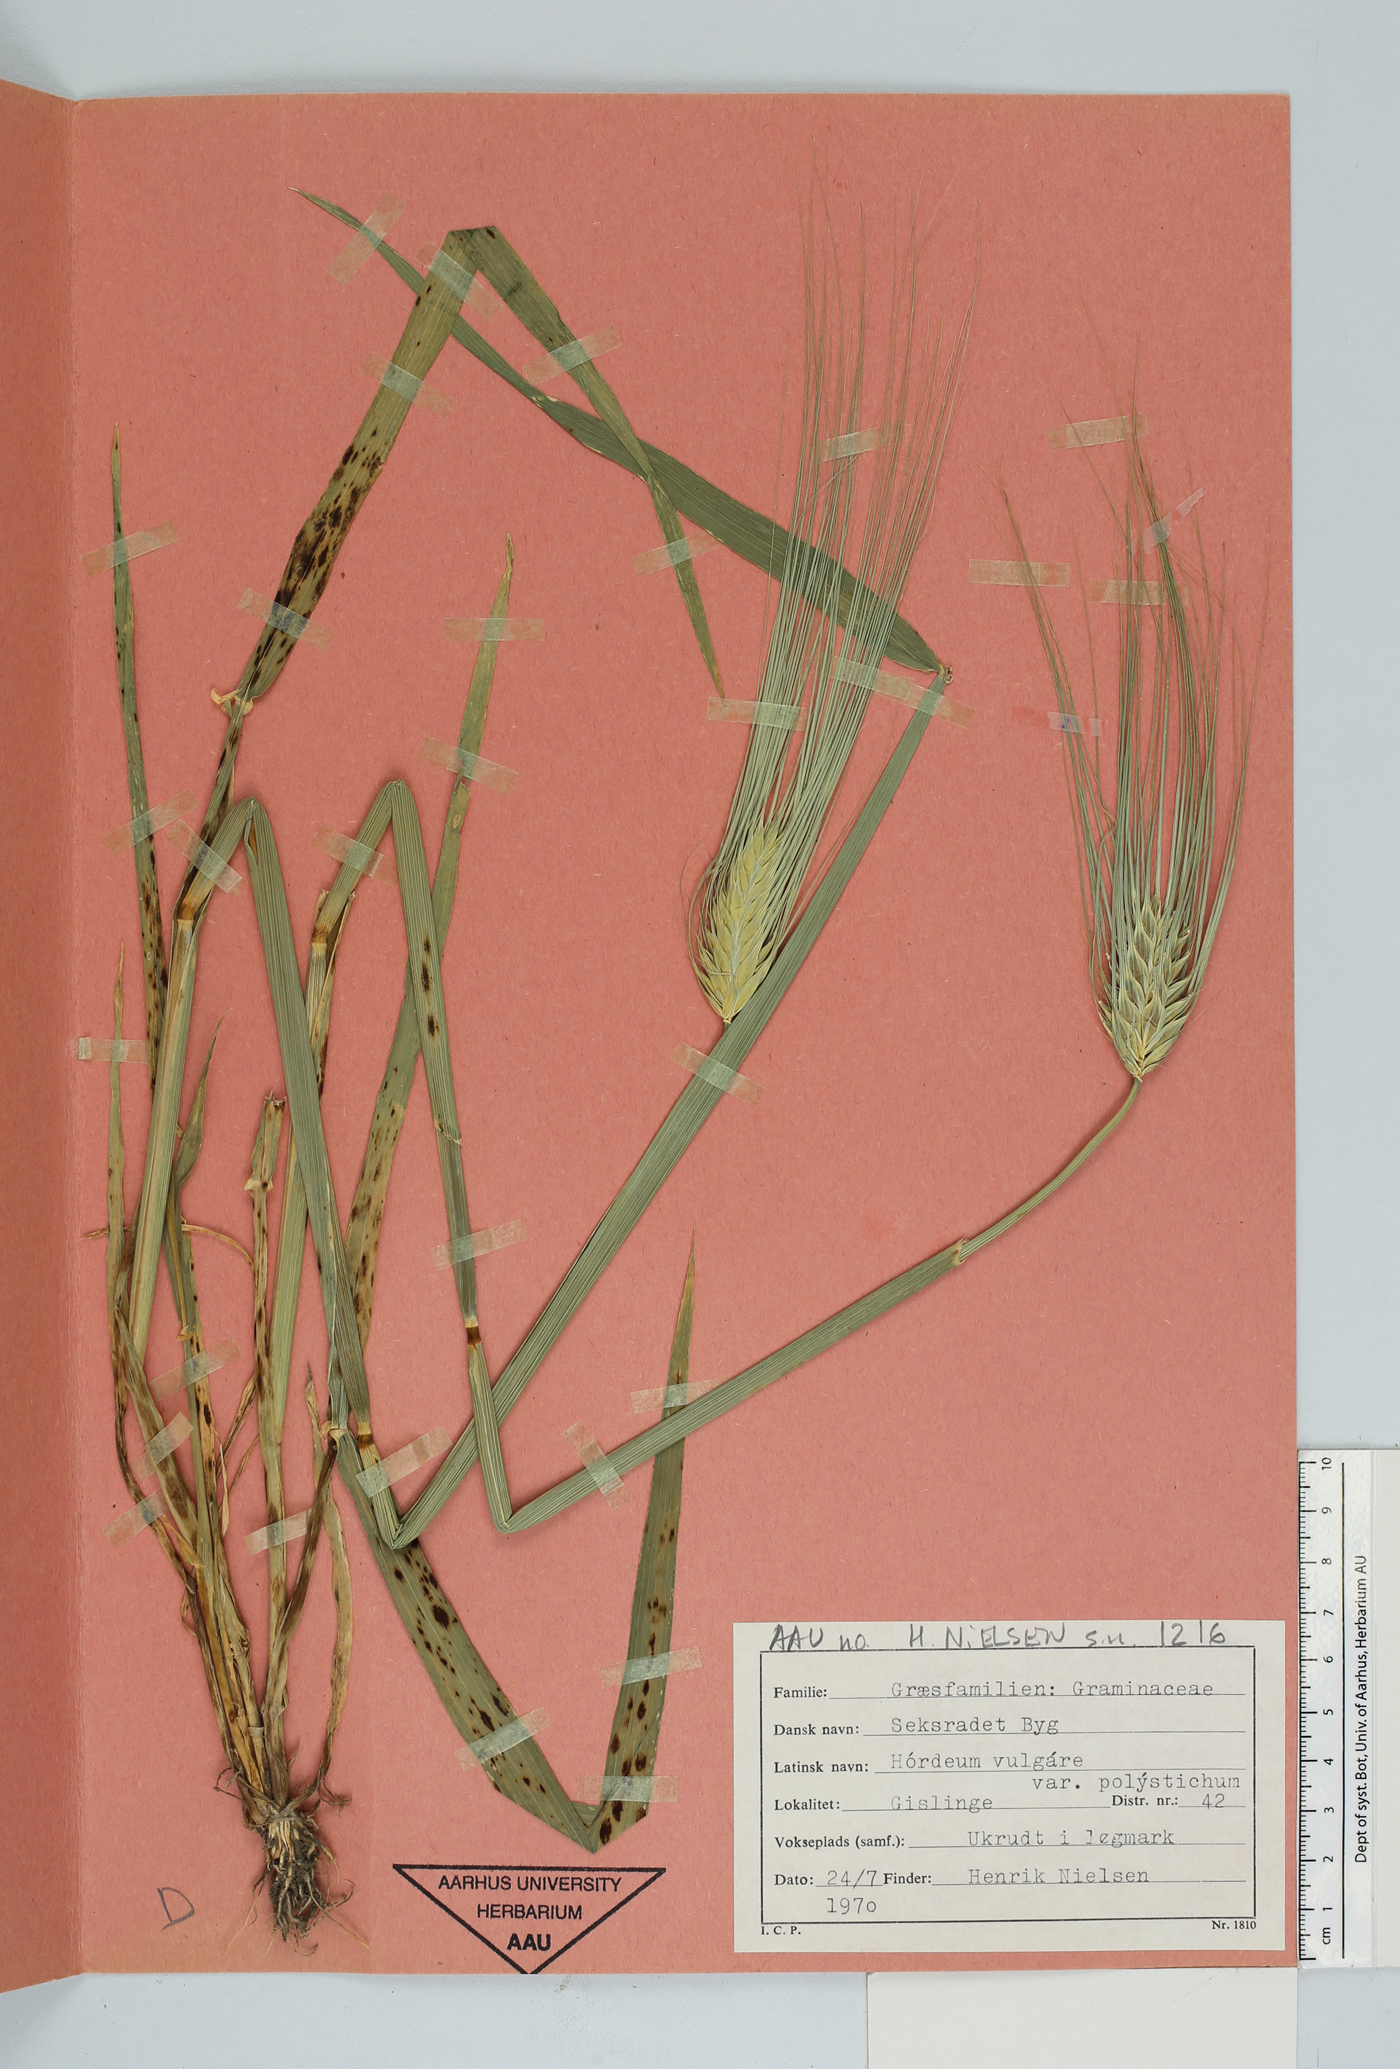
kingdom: Plantae
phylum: Tracheophyta
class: Liliopsida
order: Poales
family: Poaceae
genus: Hordeum
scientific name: Hordeum vulgare
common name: Common barley
